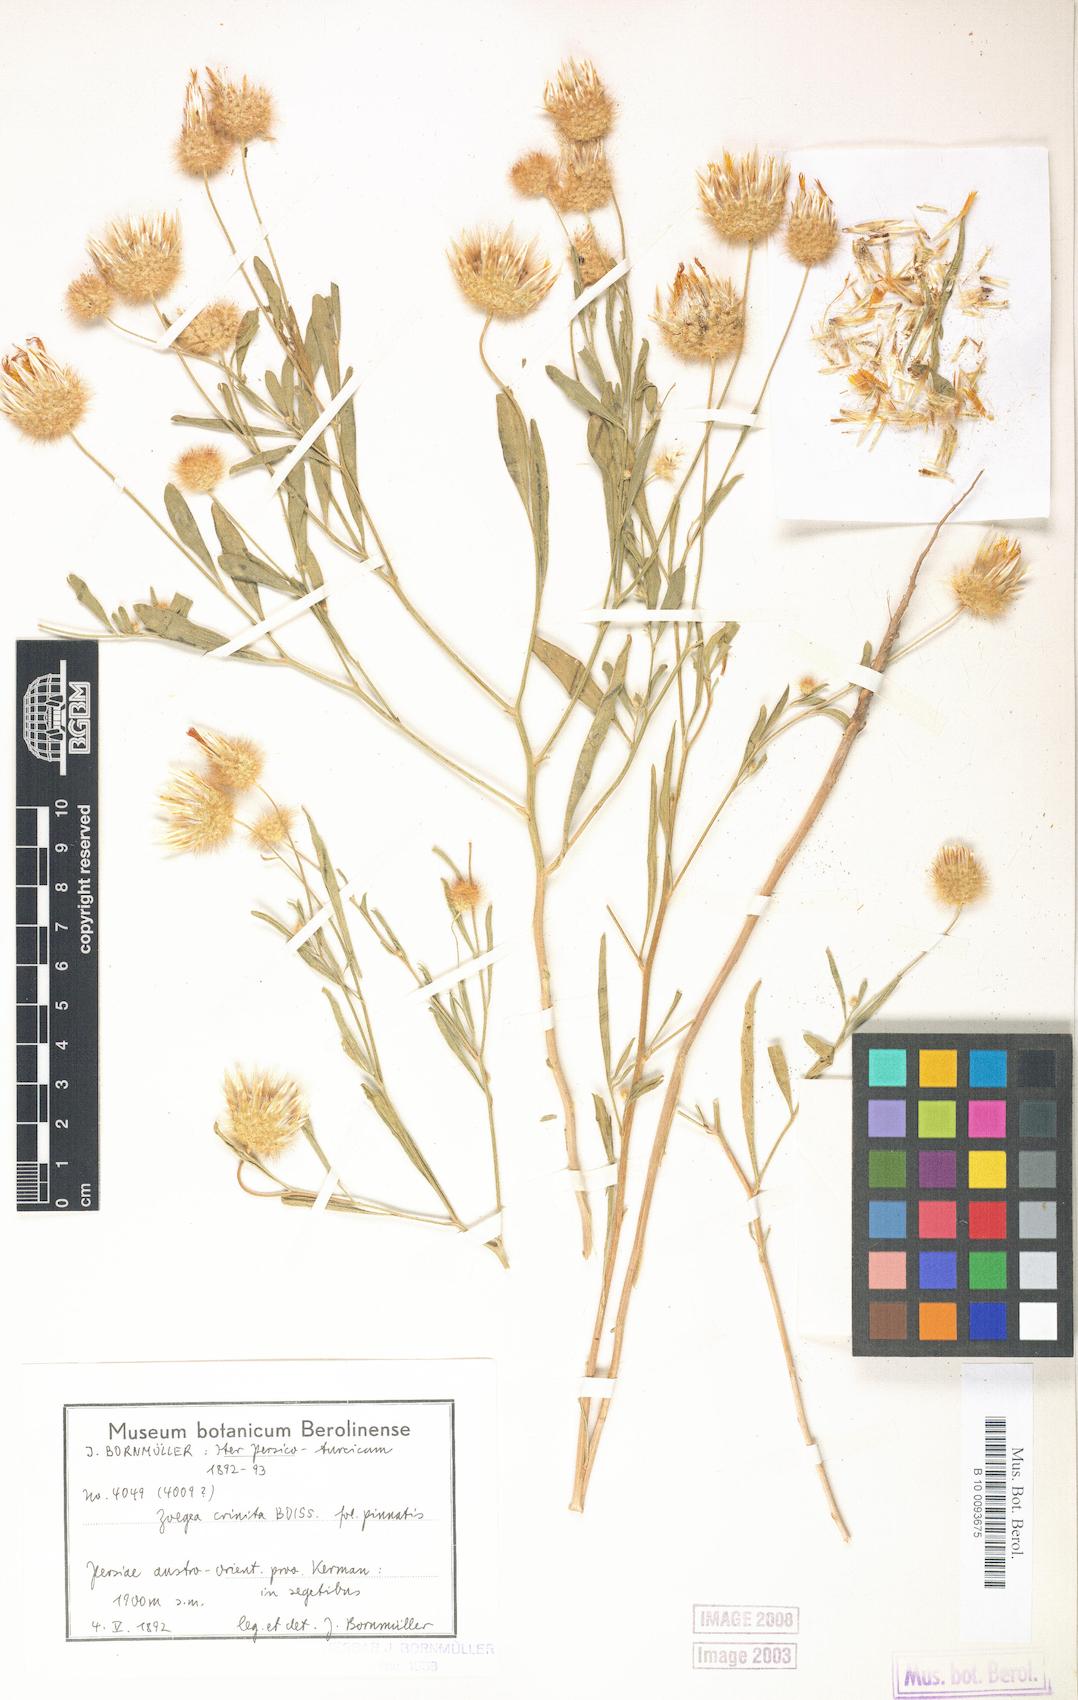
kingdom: Plantae
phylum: Tracheophyta
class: Magnoliopsida
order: Asterales
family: Asteraceae
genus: Zoegea
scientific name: Zoegea crinita
